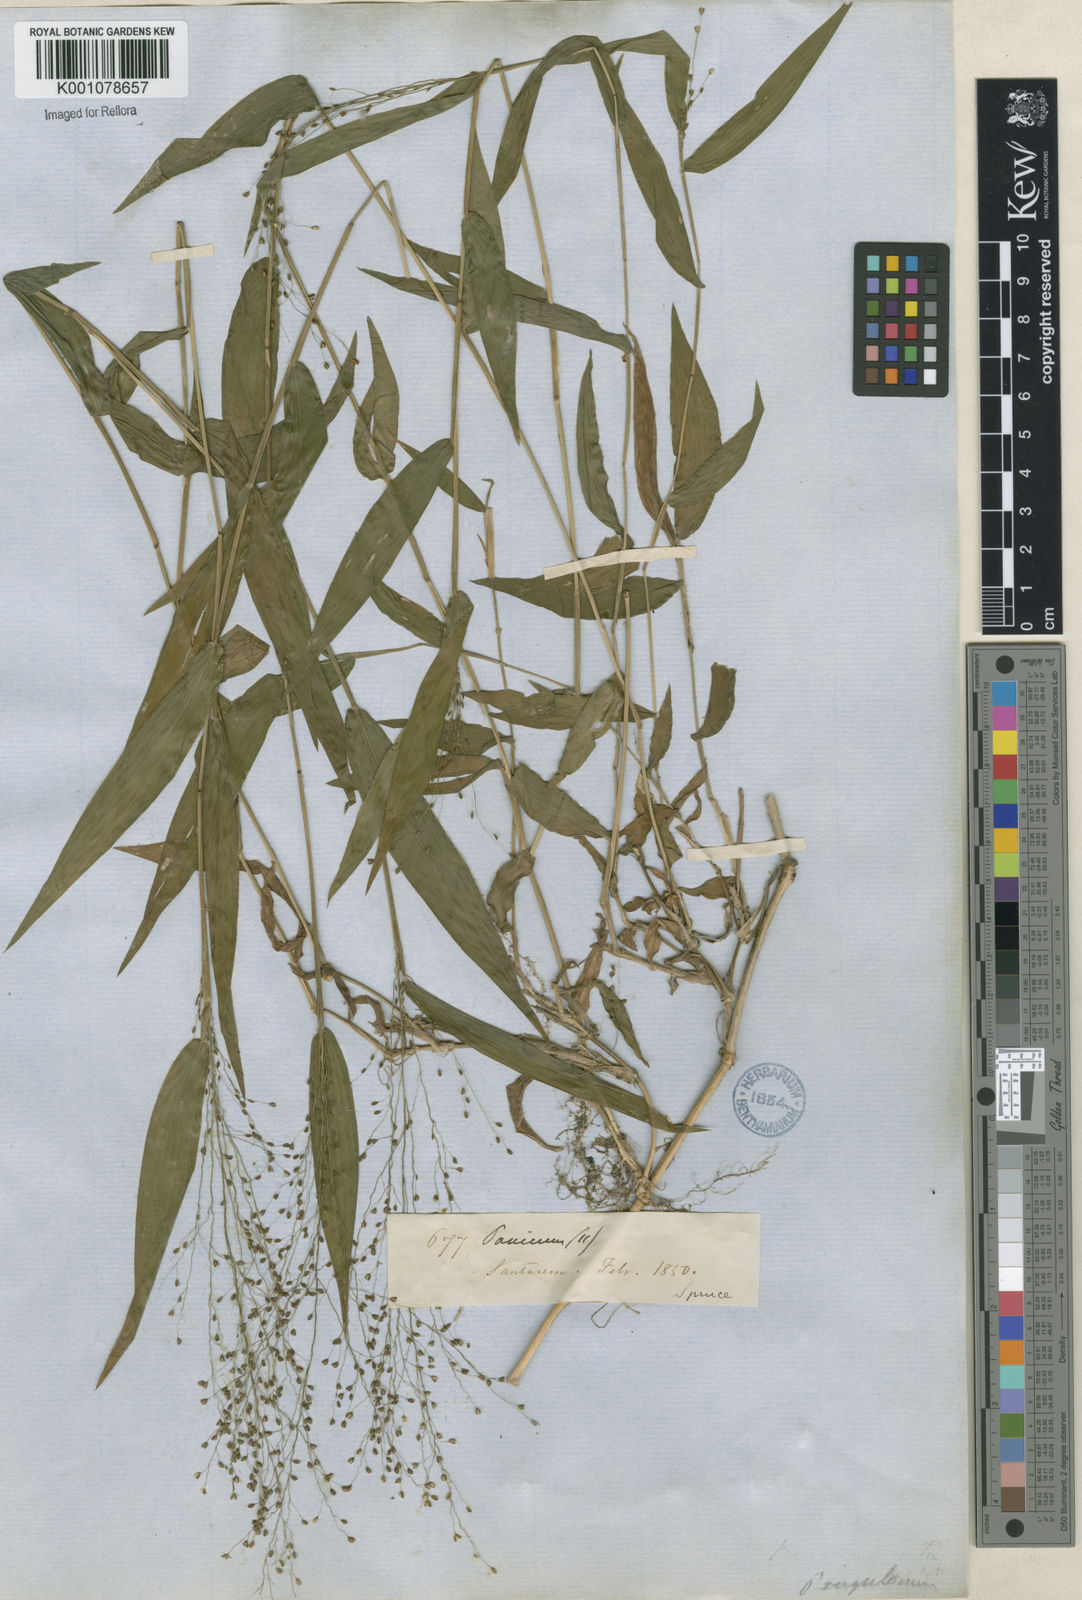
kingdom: Plantae
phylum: Tracheophyta
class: Liliopsida
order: Poales
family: Poaceae
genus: Panicum
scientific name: Panicum millegrana
